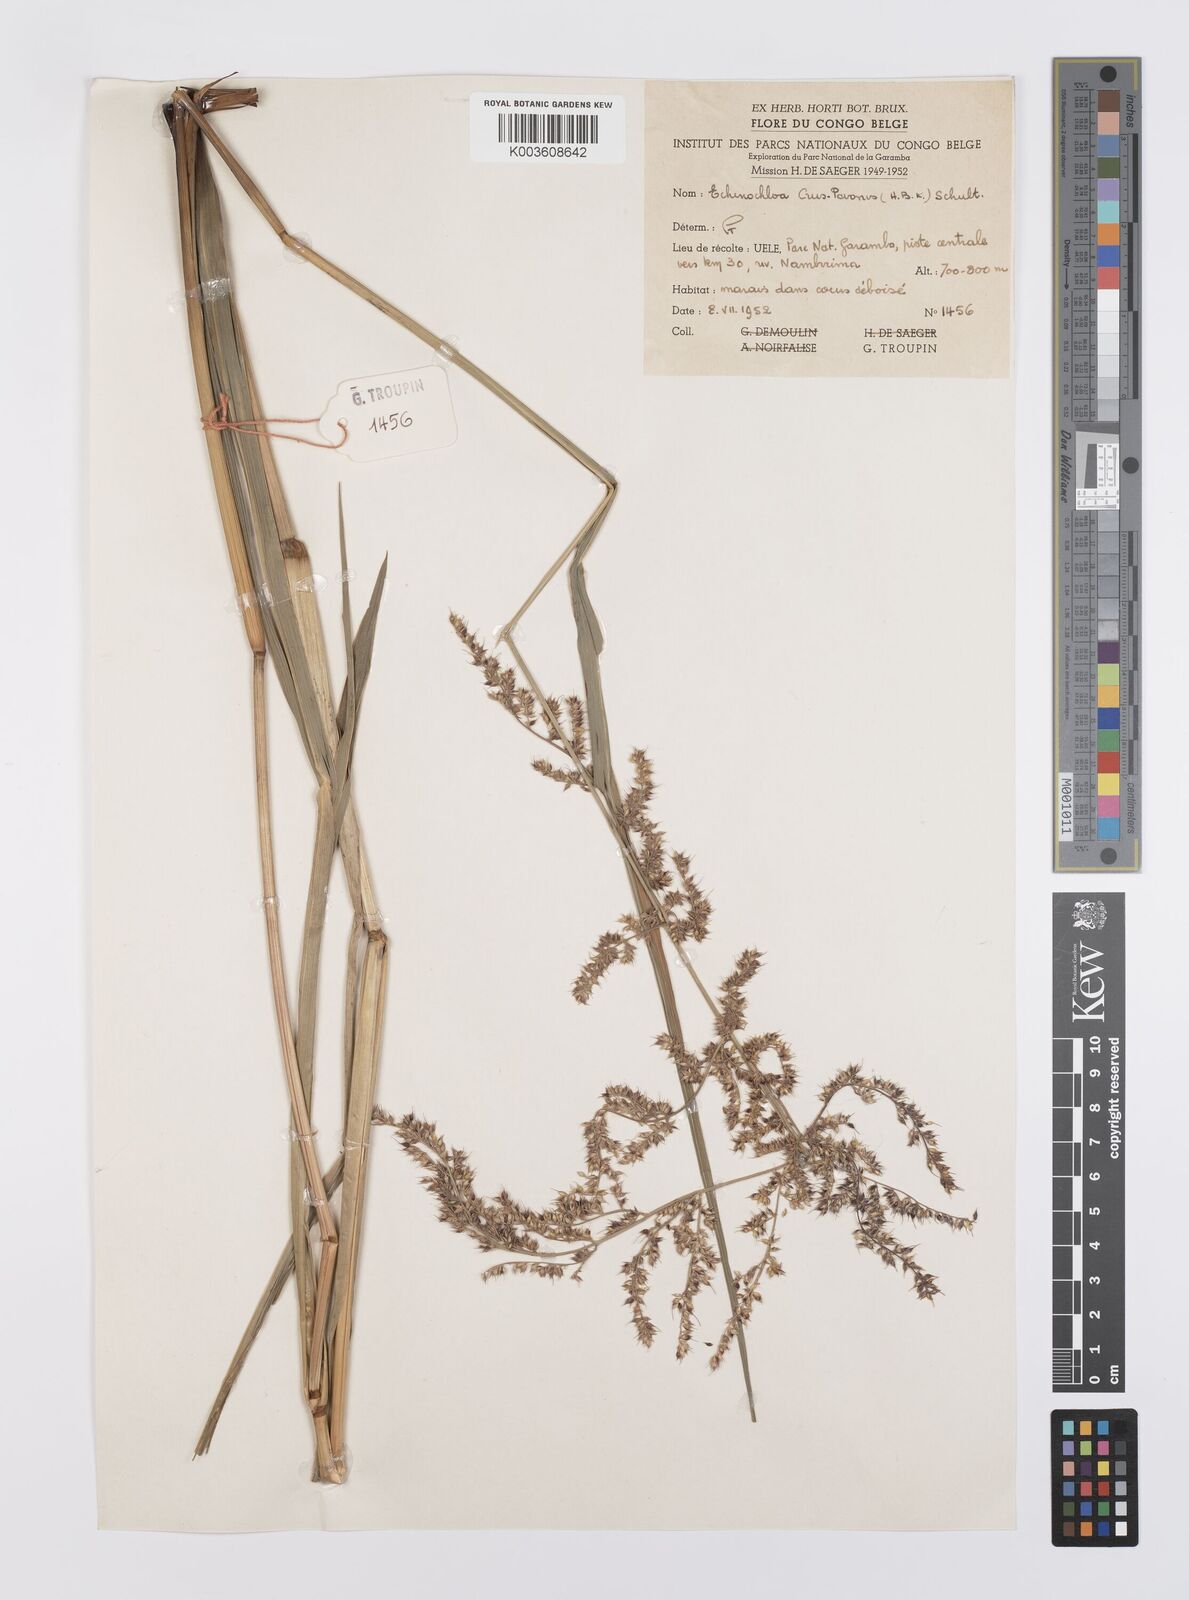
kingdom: Plantae
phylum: Tracheophyta
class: Liliopsida
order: Poales
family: Poaceae
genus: Echinochloa
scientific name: Echinochloa crus-pavonis
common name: Gulf cockspur grass
